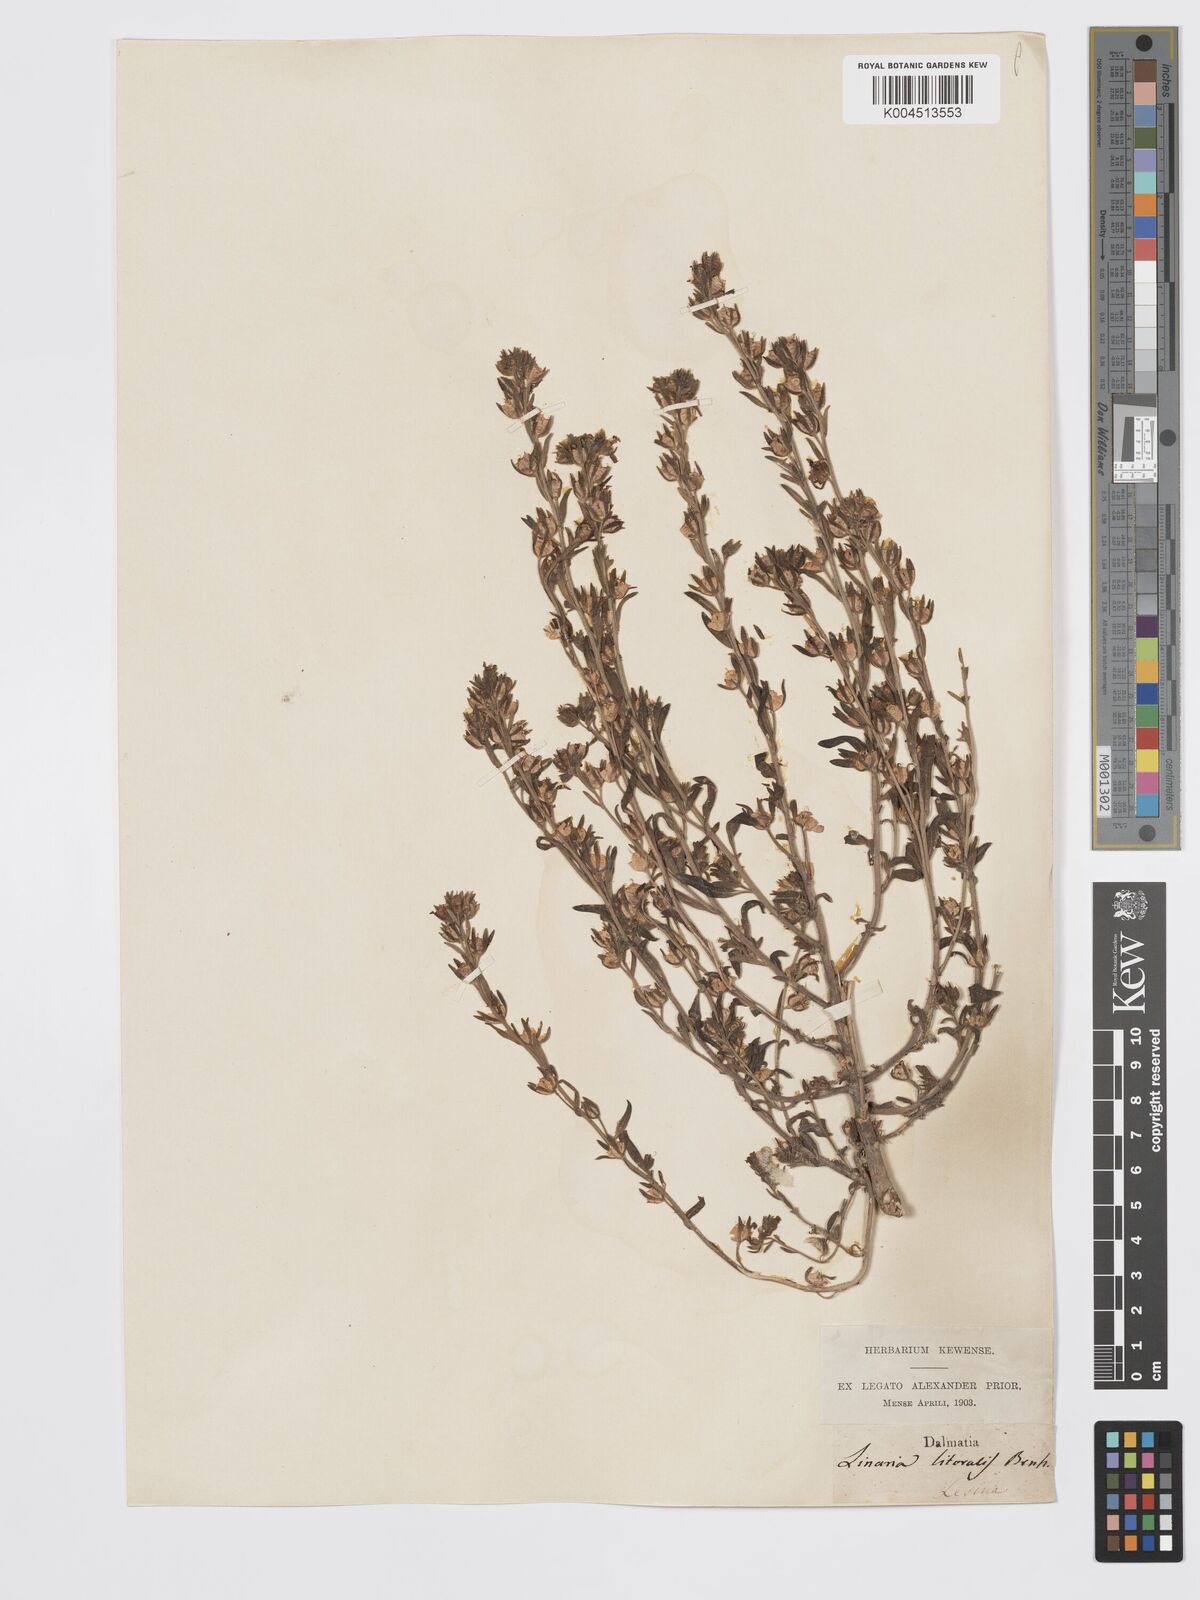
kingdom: Plantae
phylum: Tracheophyta
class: Magnoliopsida
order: Lamiales
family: Plantaginaceae
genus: Chaenorhinum
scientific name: Chaenorhinum minus
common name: Dwarf snapdragon
